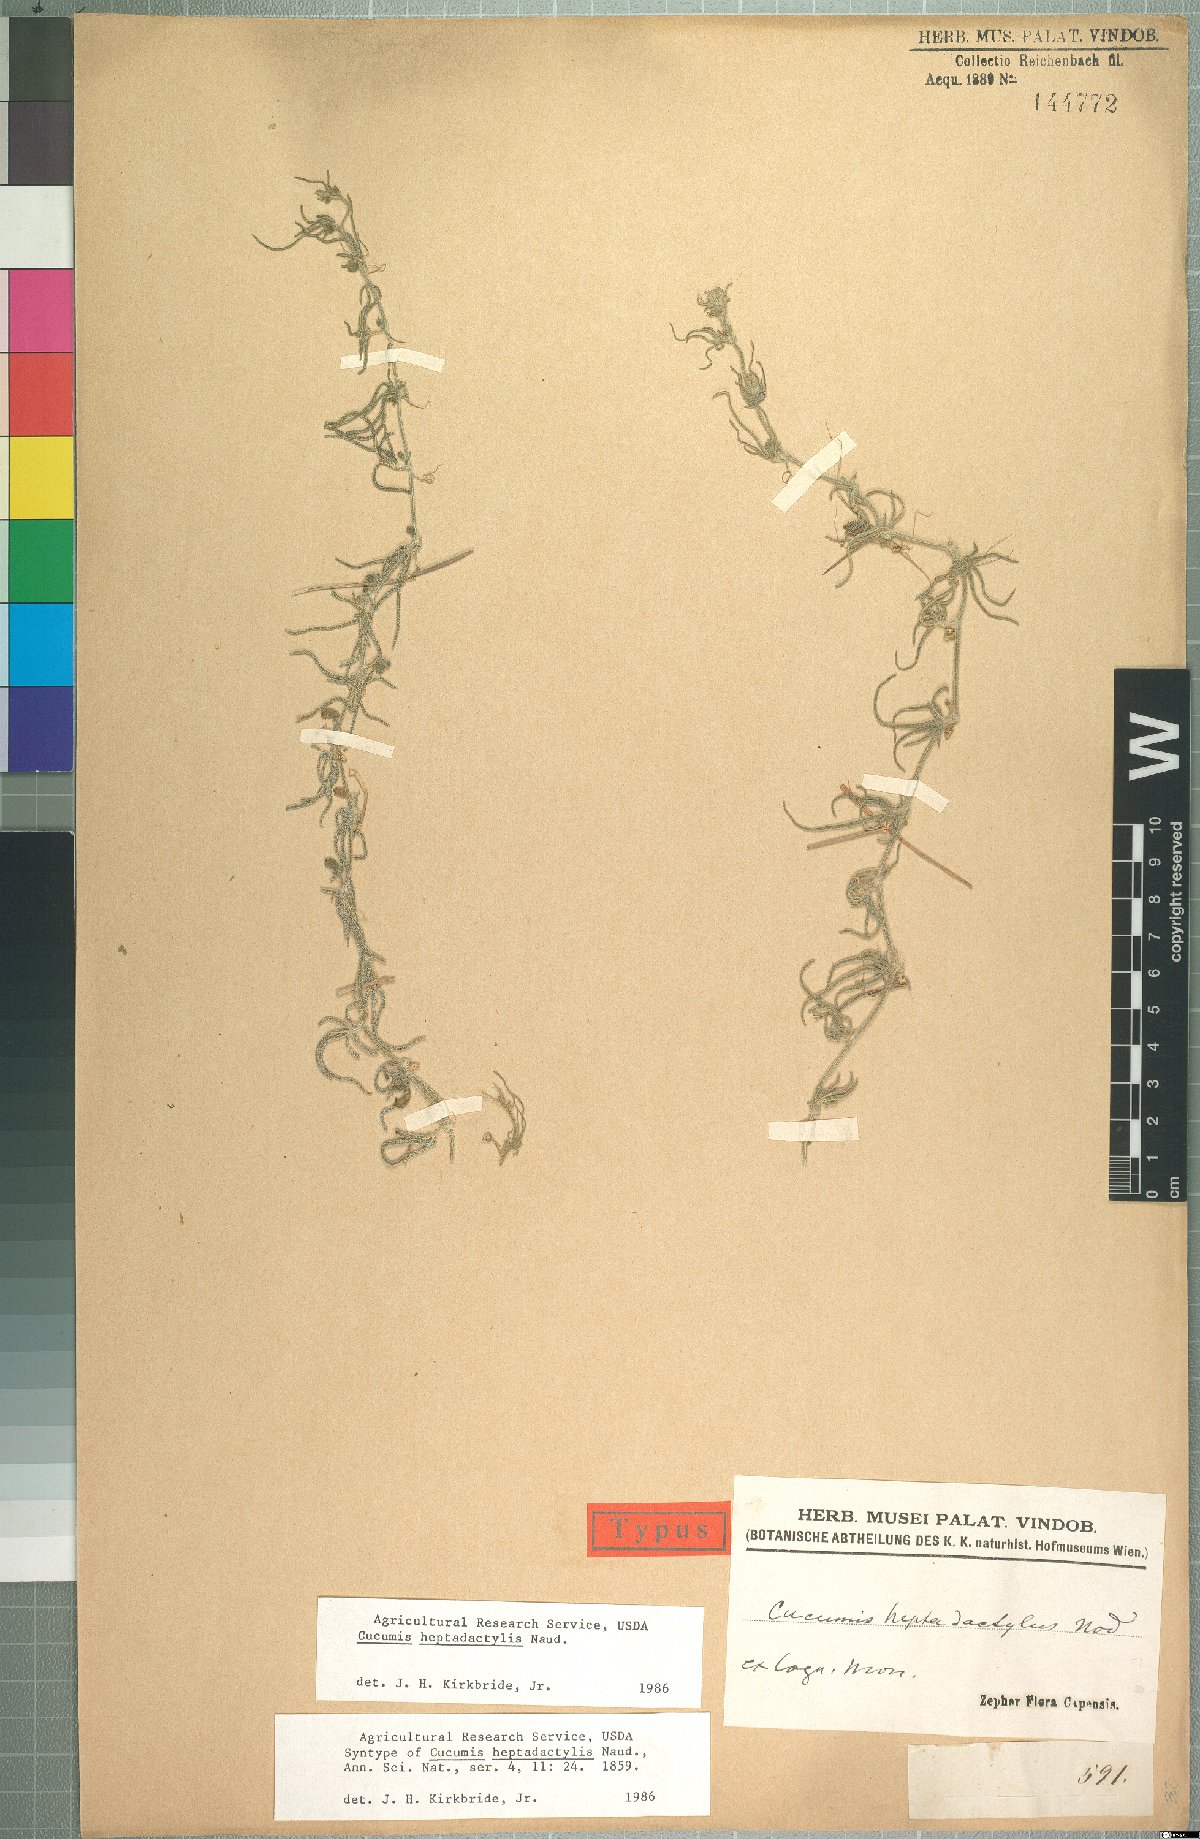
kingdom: Plantae
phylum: Tracheophyta
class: Magnoliopsida
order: Cucurbitales
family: Cucurbitaceae
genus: Cucumis
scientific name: Cucumis heptadactylus
